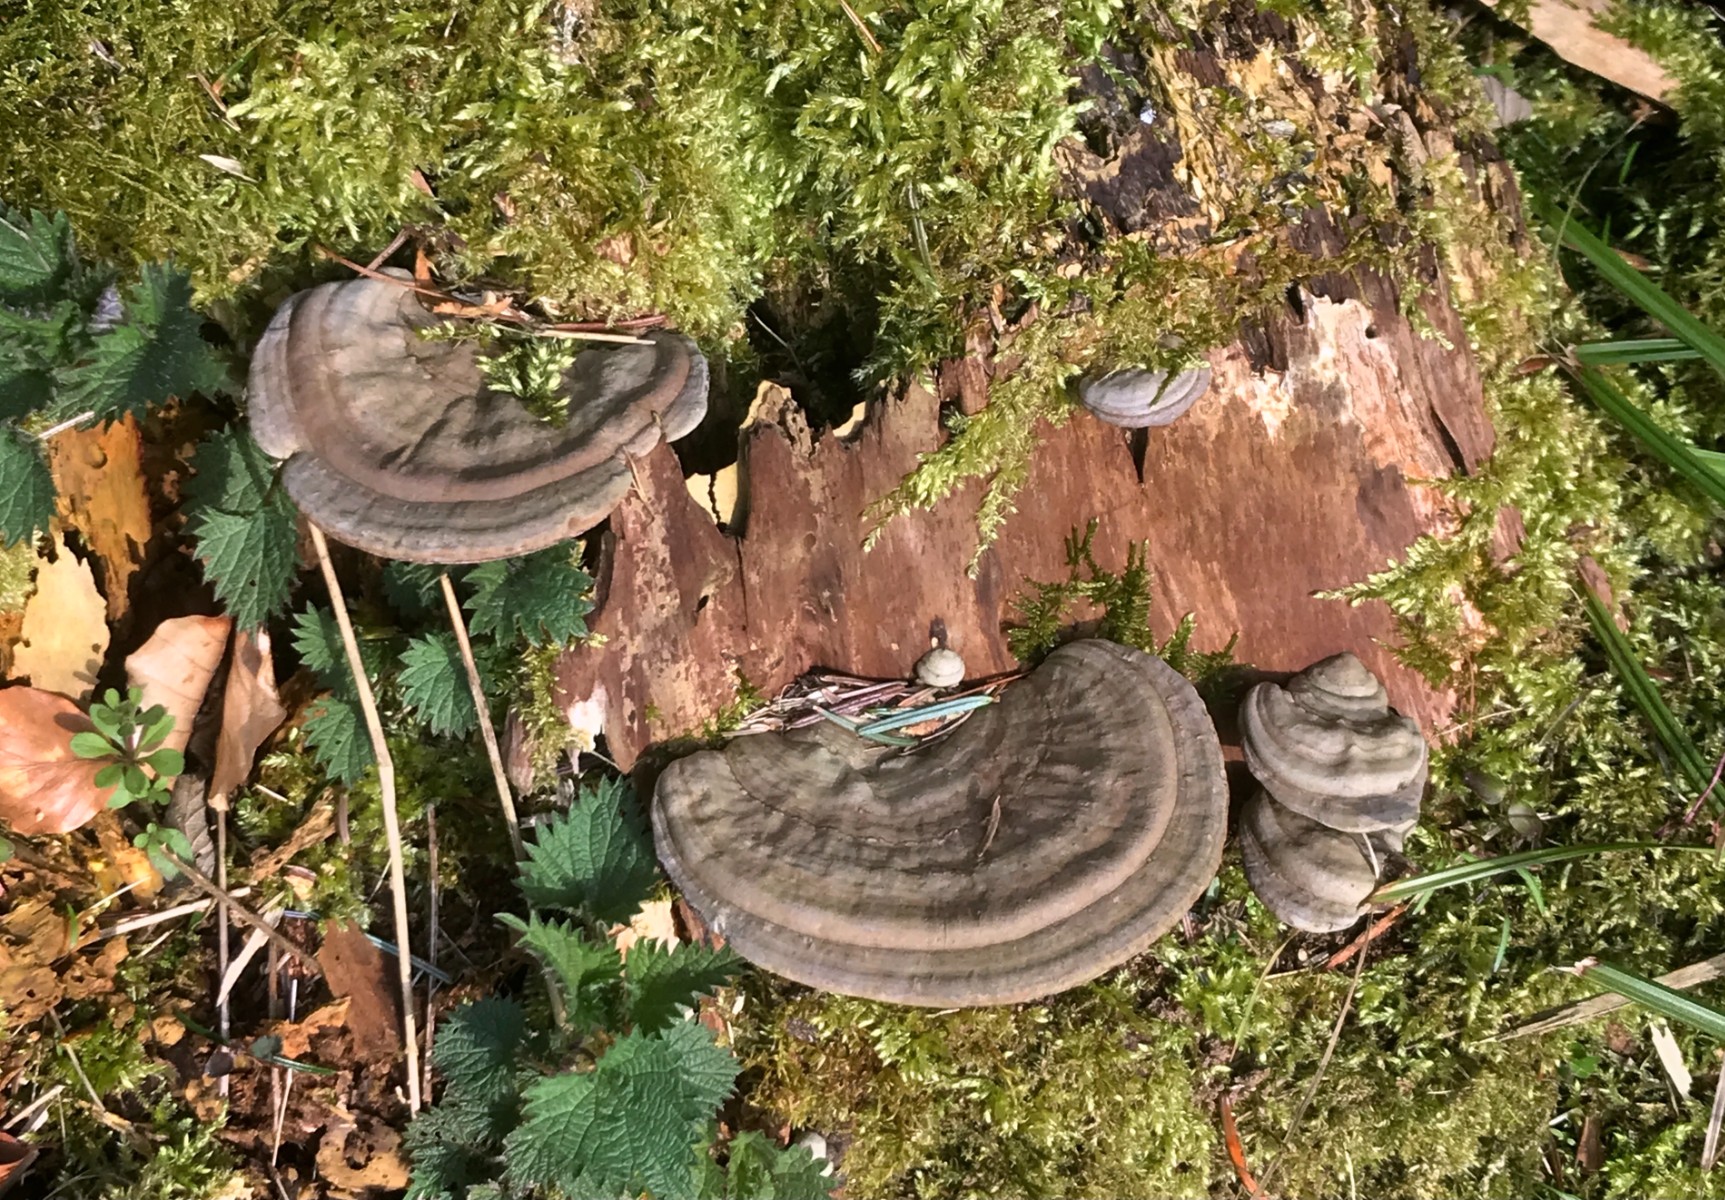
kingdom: Fungi
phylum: Basidiomycota
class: Agaricomycetes
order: Polyporales
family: Polyporaceae
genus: Ganoderma
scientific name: Ganoderma applanatum
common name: flad lakporesvamp
